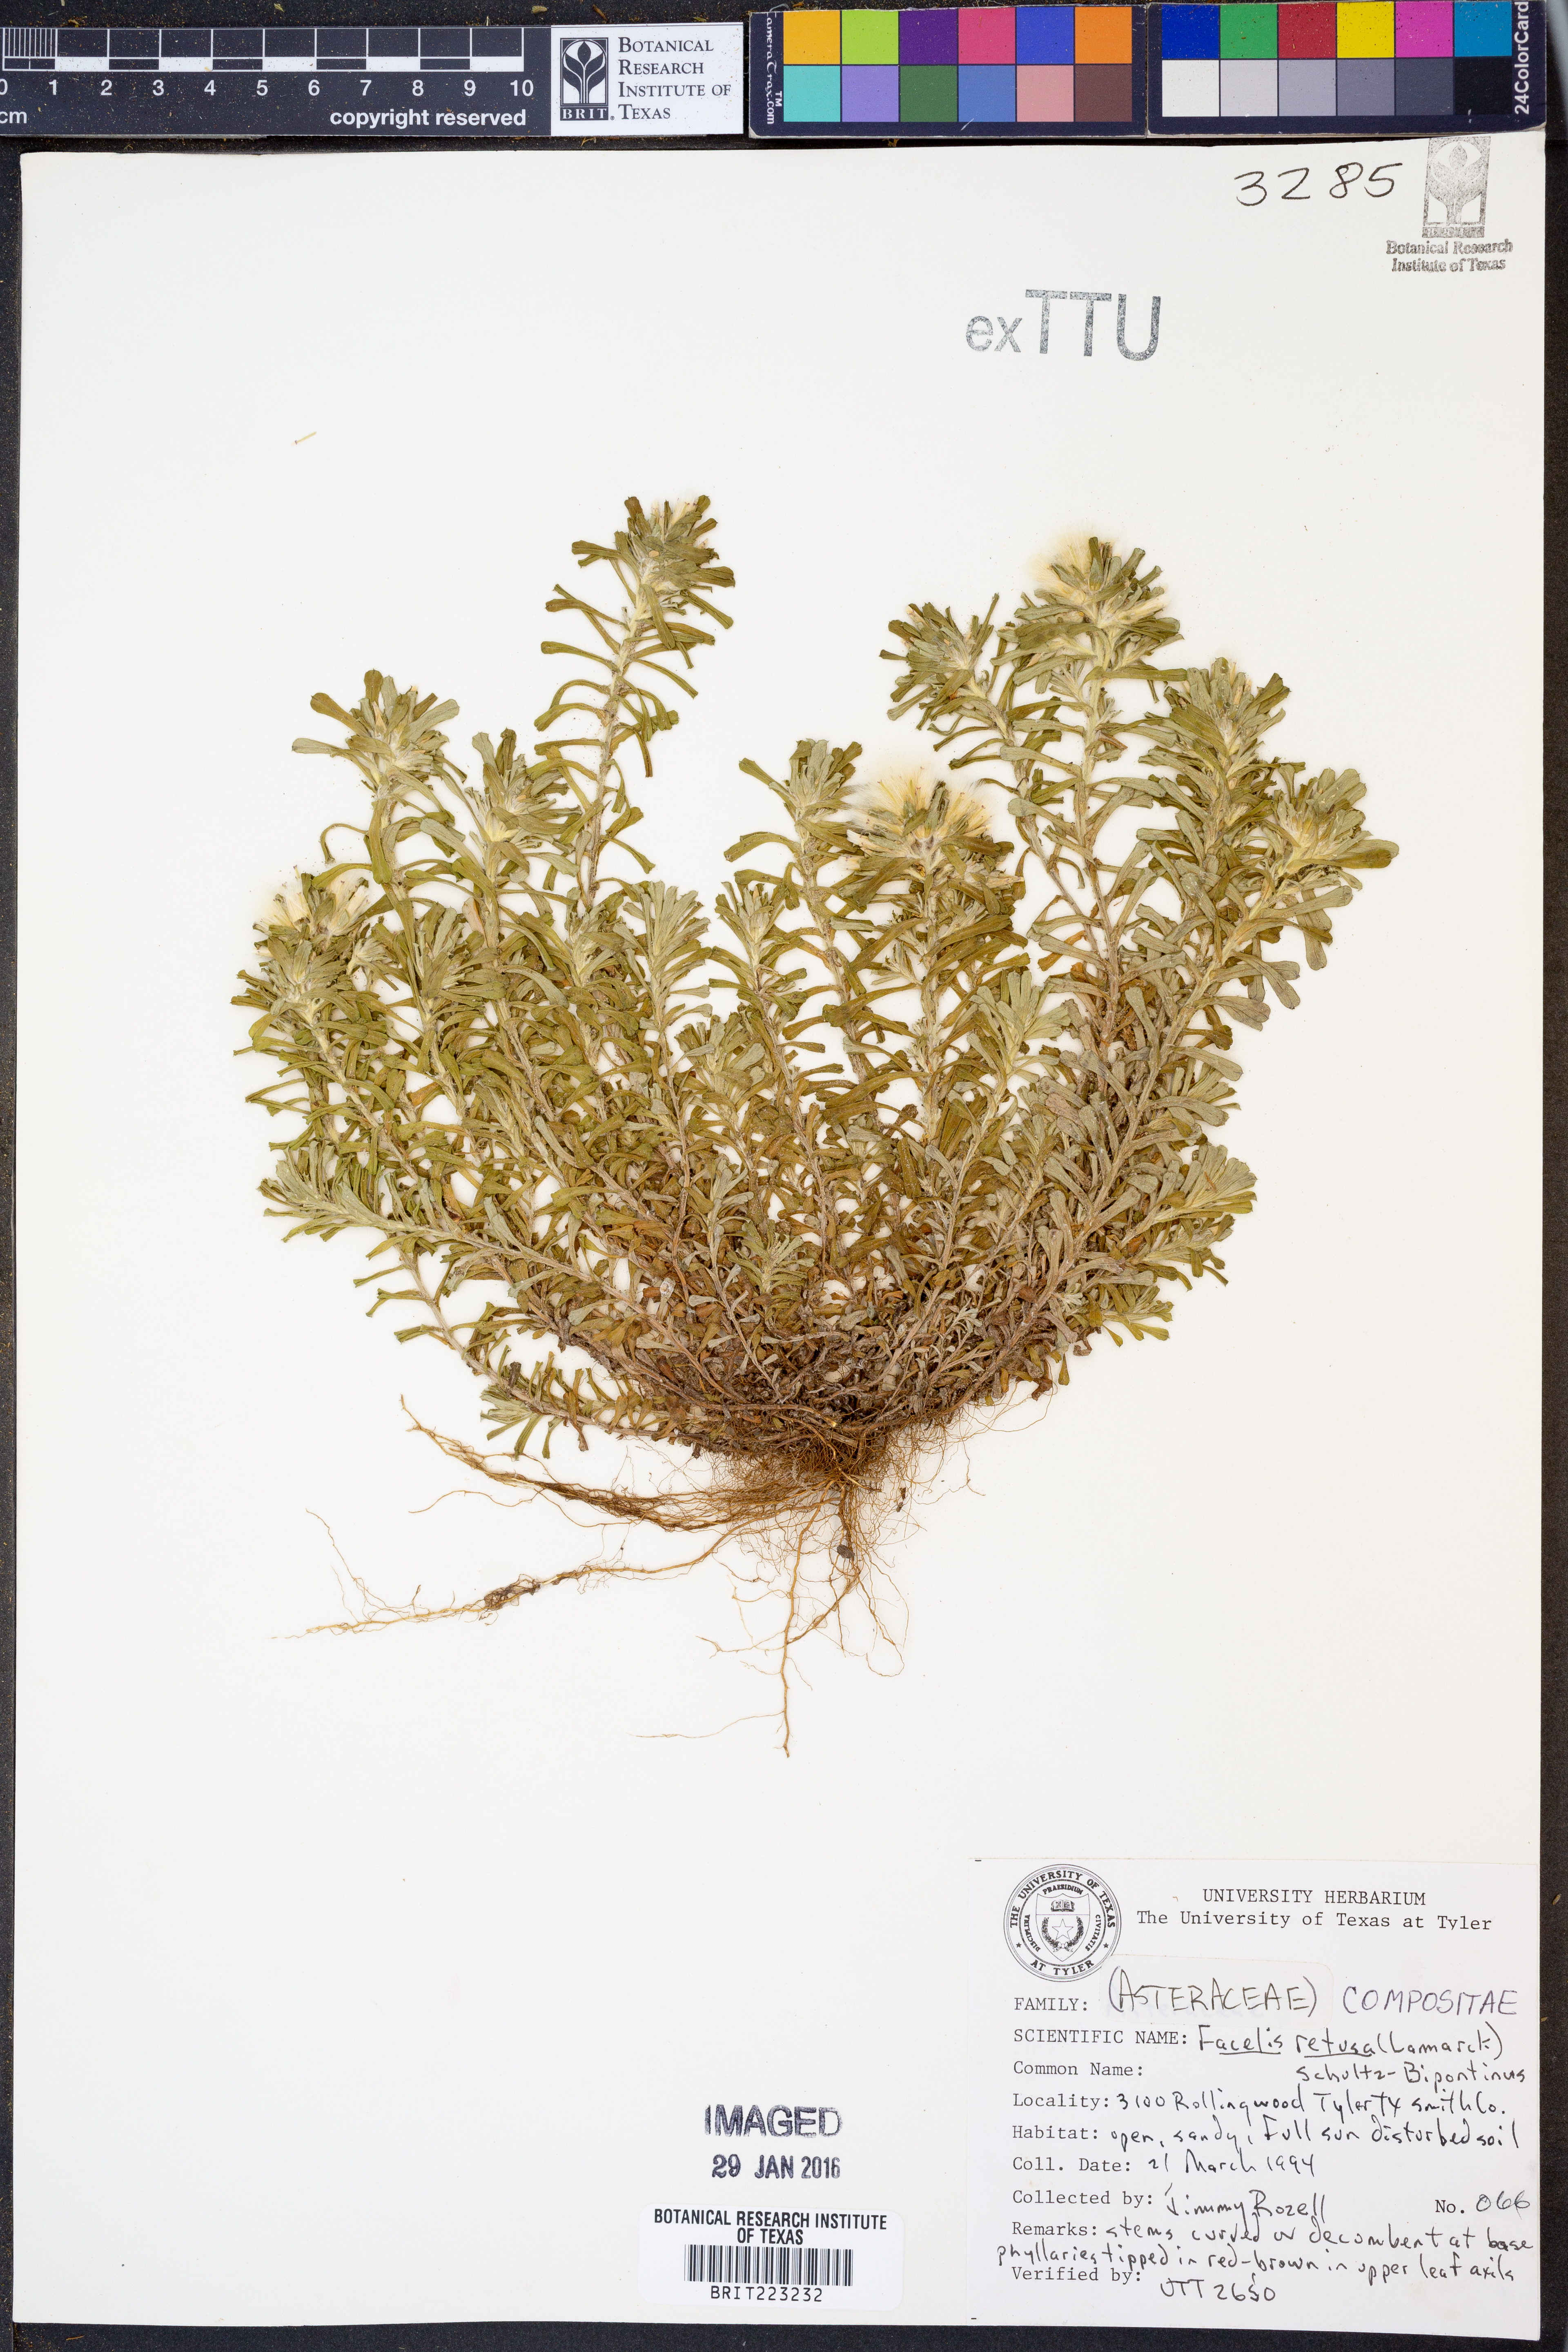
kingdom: Plantae
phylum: Tracheophyta
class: Magnoliopsida
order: Asterales
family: Asteraceae
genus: Facelis
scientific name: Facelis retusa
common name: Annual trampweed
